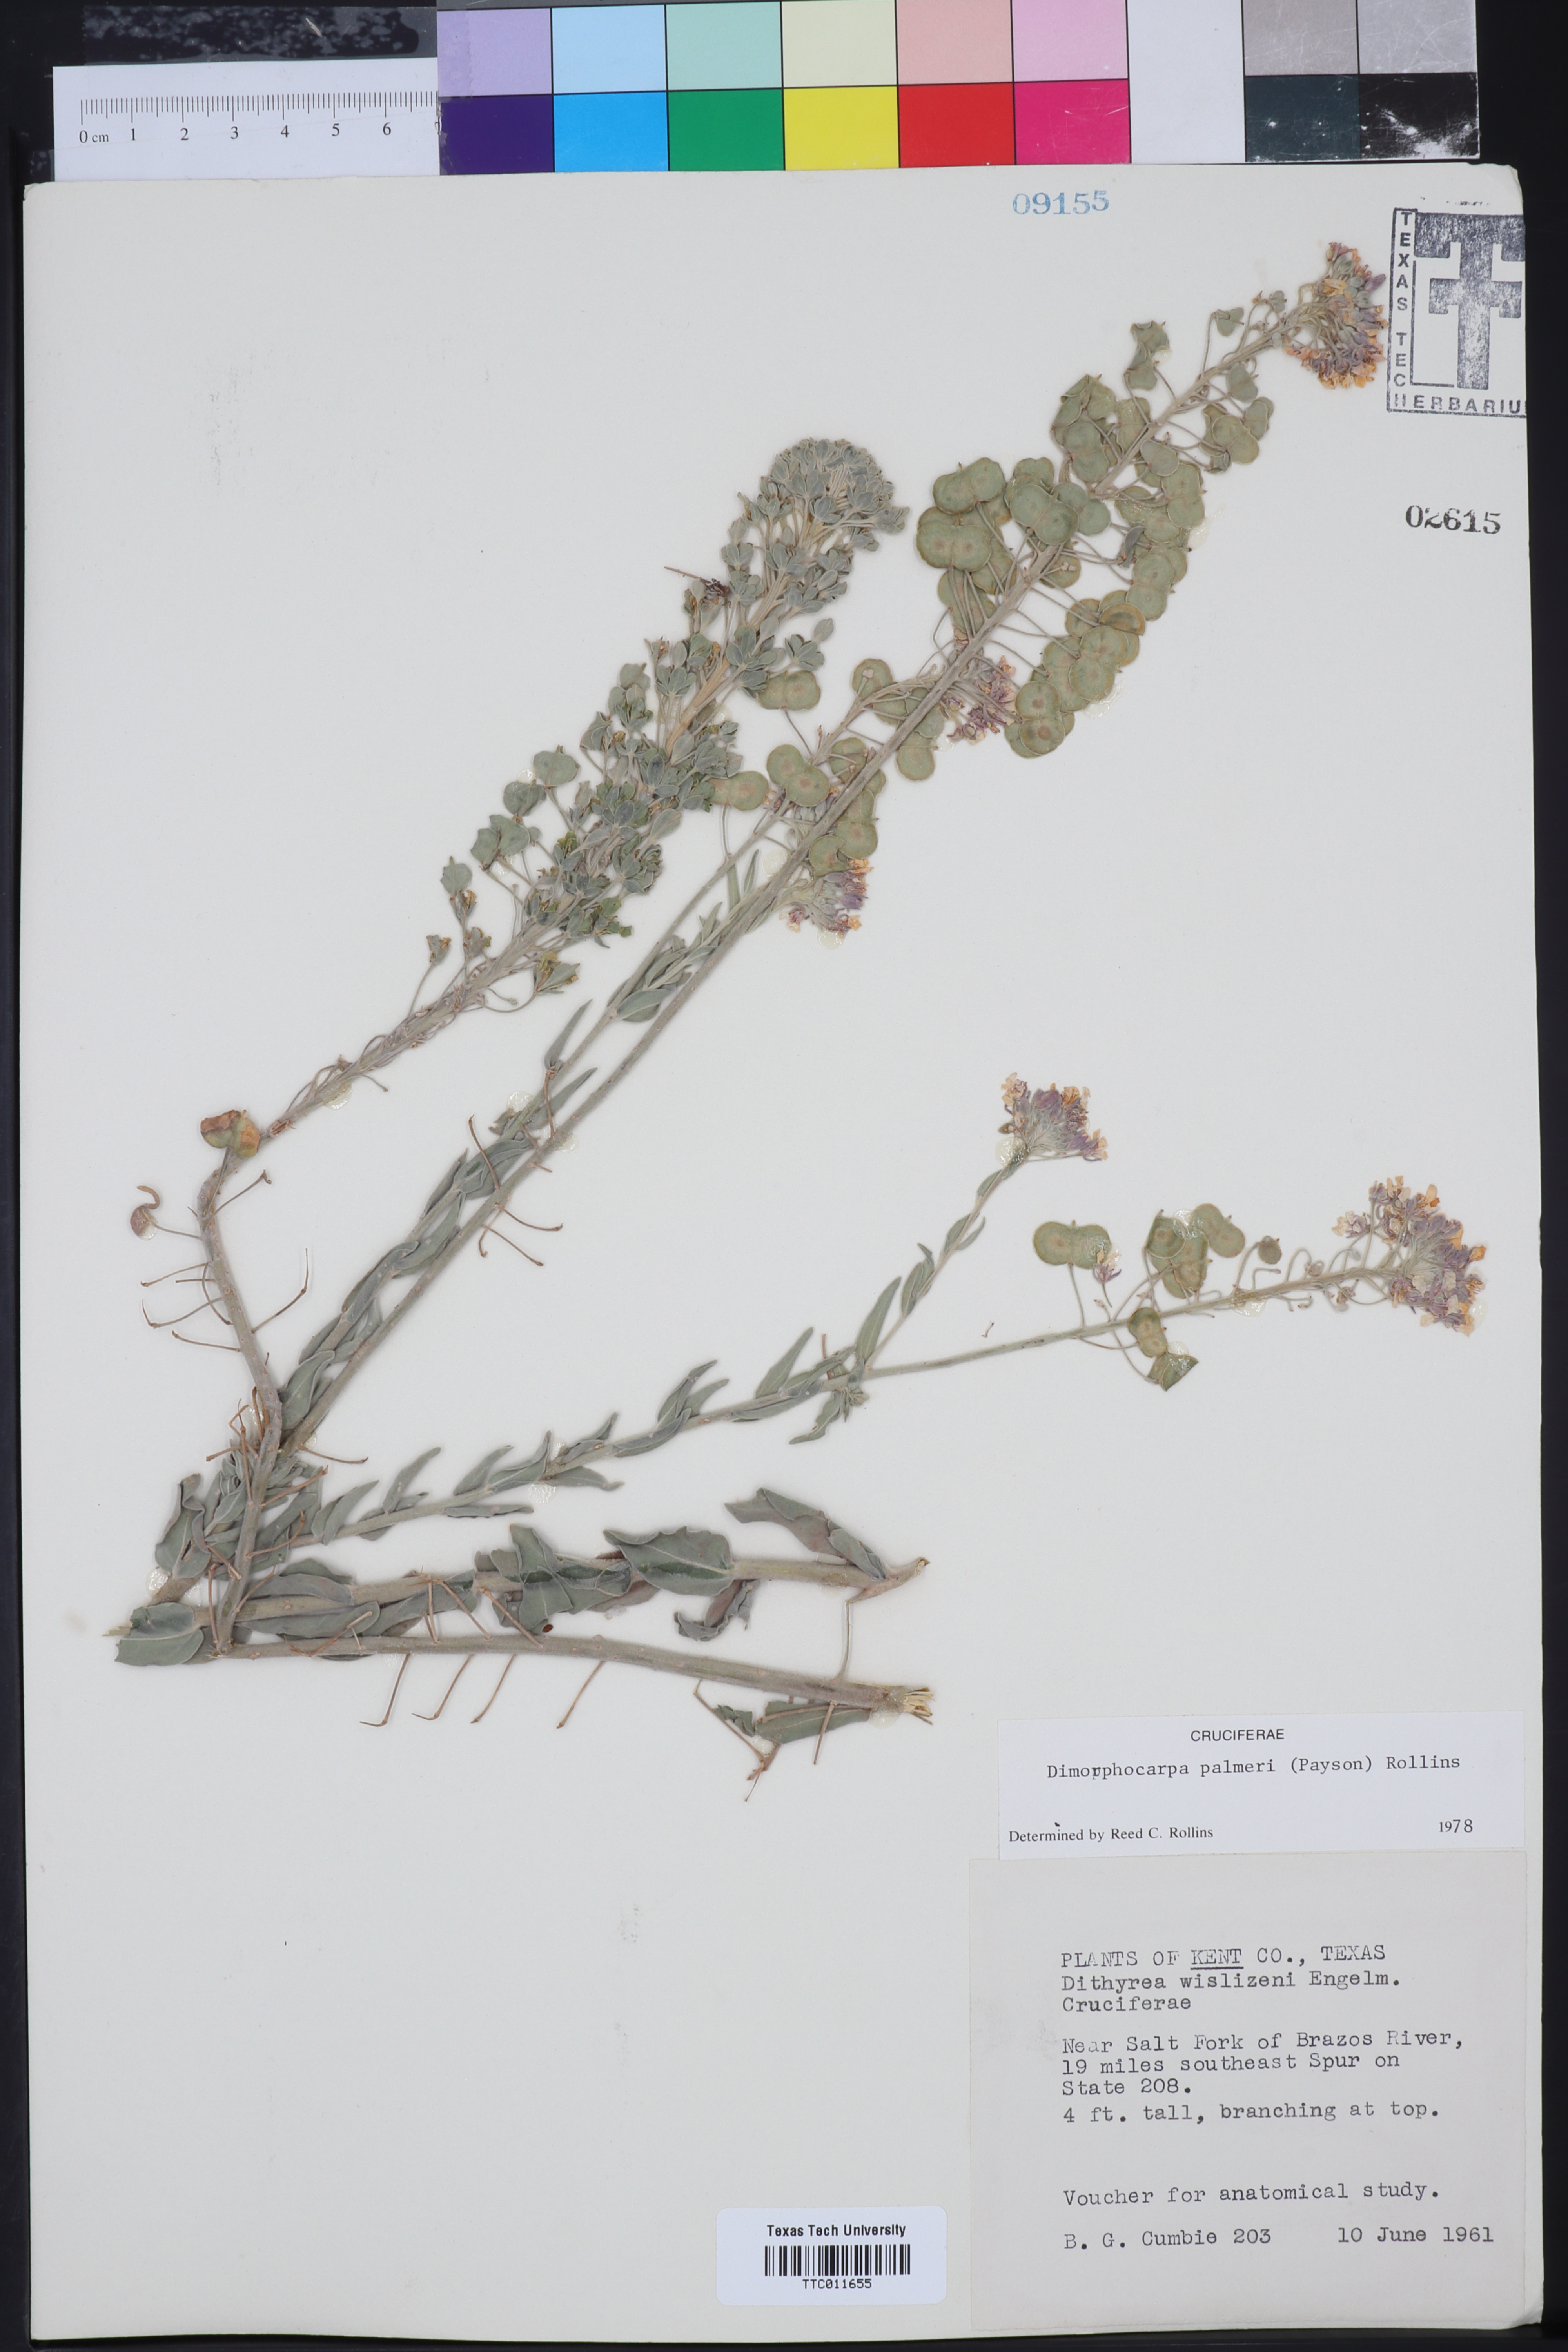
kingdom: Plantae
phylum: Tracheophyta
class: Magnoliopsida
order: Brassicales
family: Brassicaceae
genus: Dimorphocarpa
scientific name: Dimorphocarpa candicans
